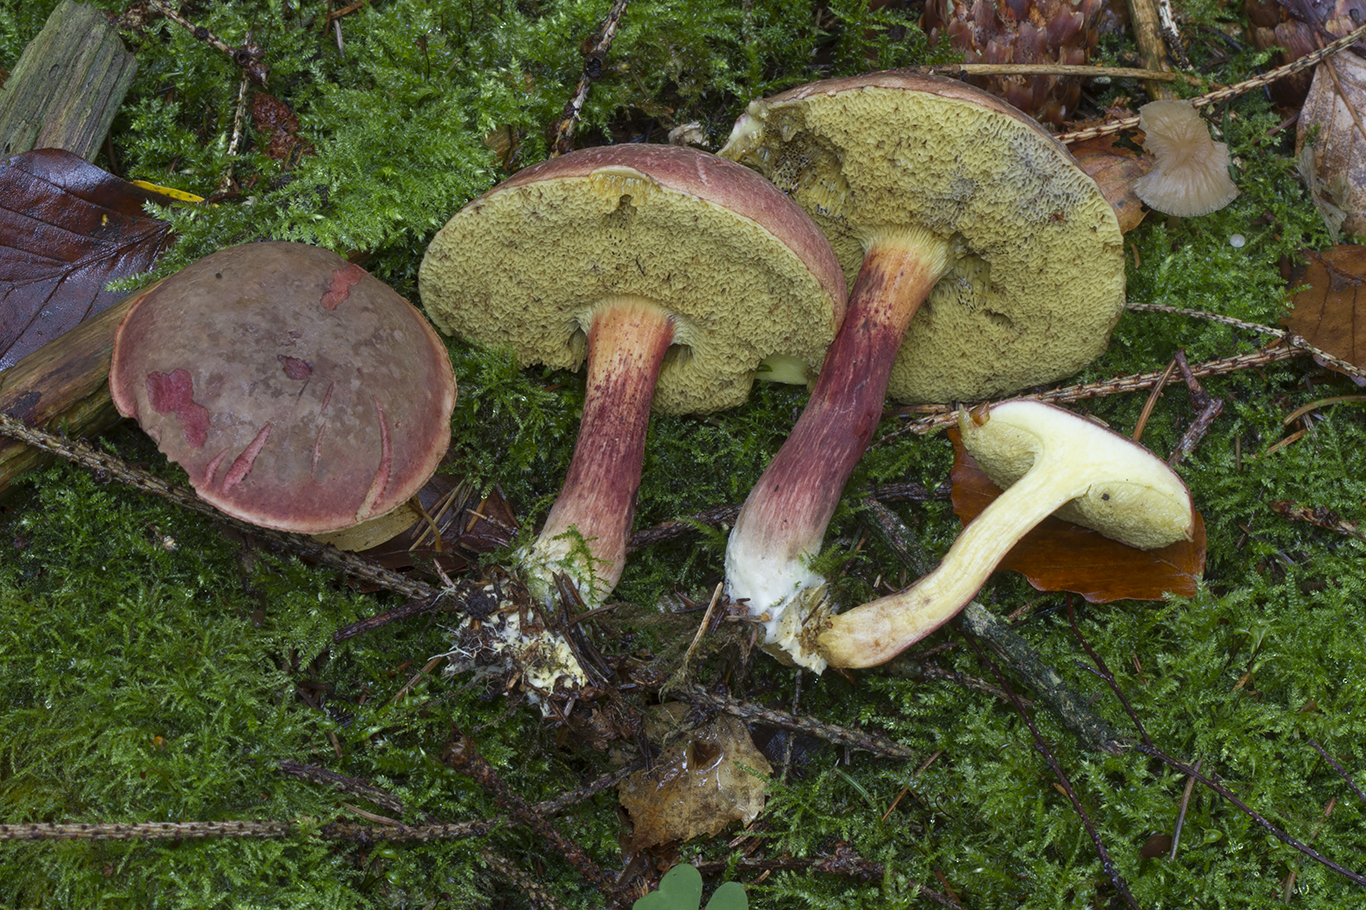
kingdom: Fungi
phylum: Basidiomycota
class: Agaricomycetes
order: Boletales
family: Boletaceae
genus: Xerocomellus
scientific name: Xerocomellus pruinatus
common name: dugget rørhat
